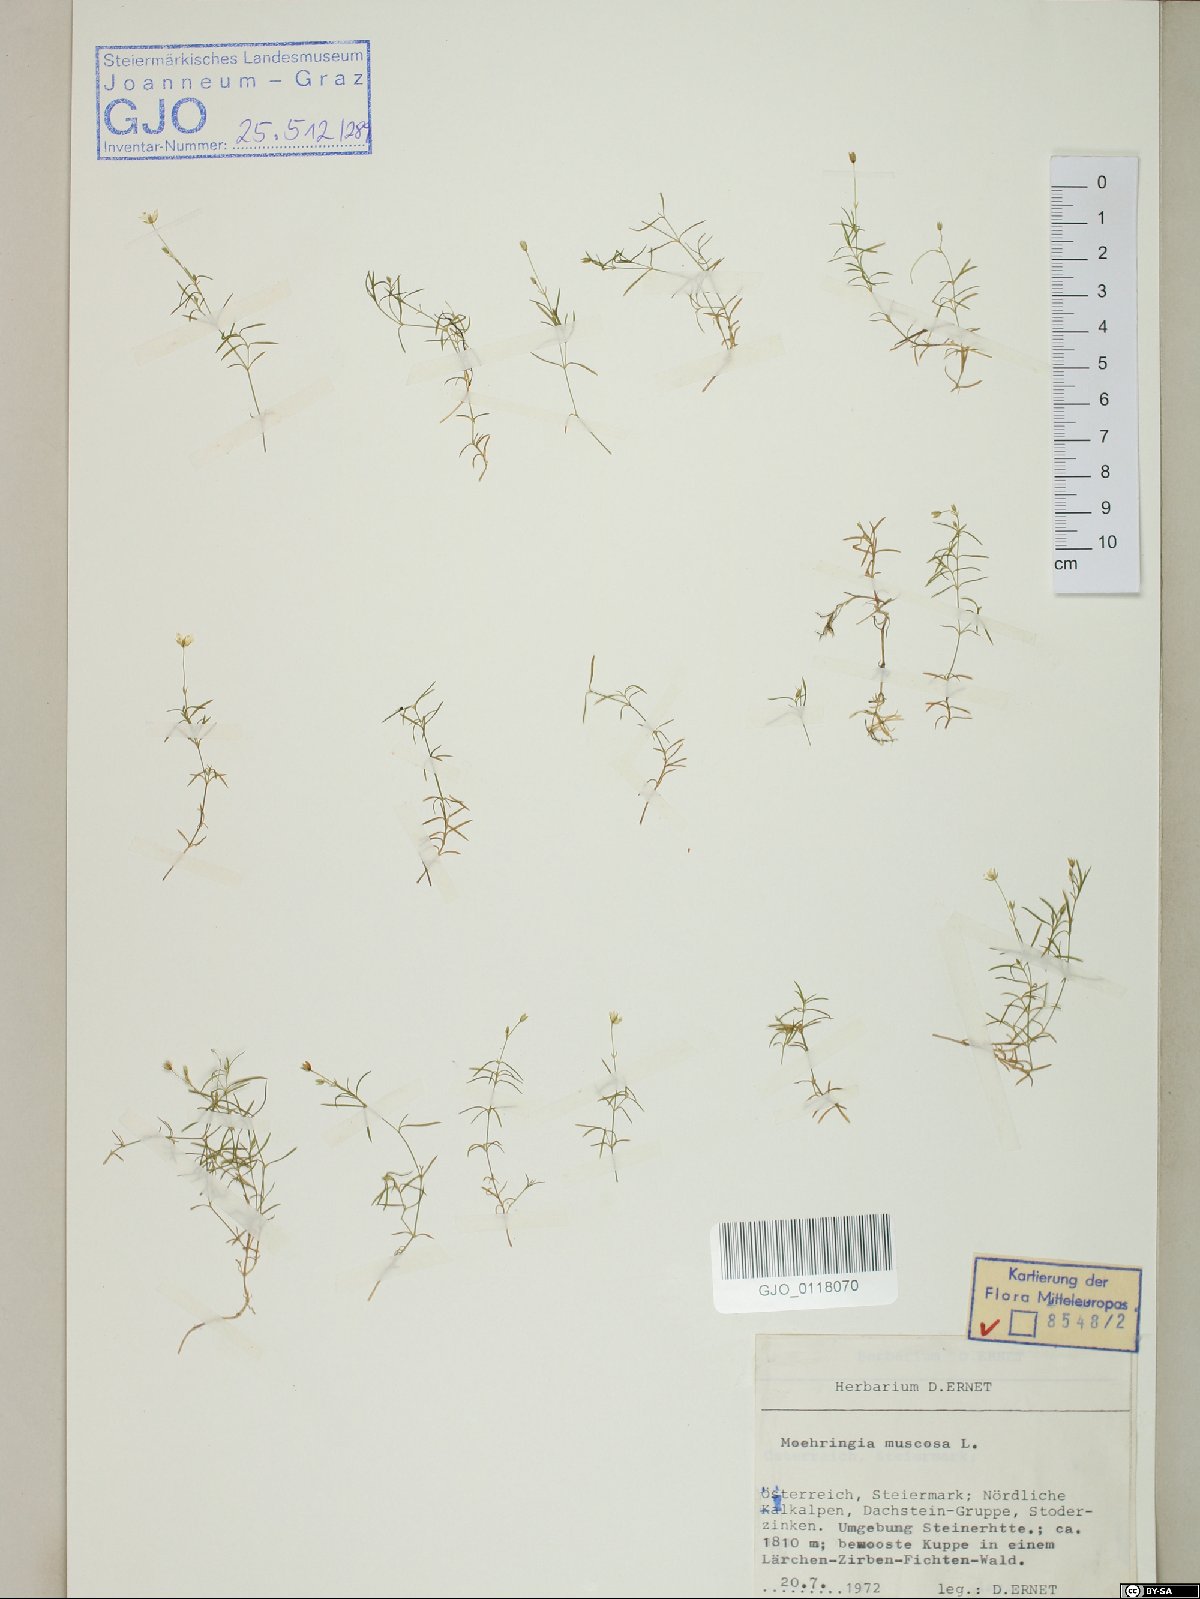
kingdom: Plantae
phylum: Tracheophyta
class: Magnoliopsida
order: Caryophyllales
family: Caryophyllaceae
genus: Moehringia
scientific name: Moehringia muscosa
